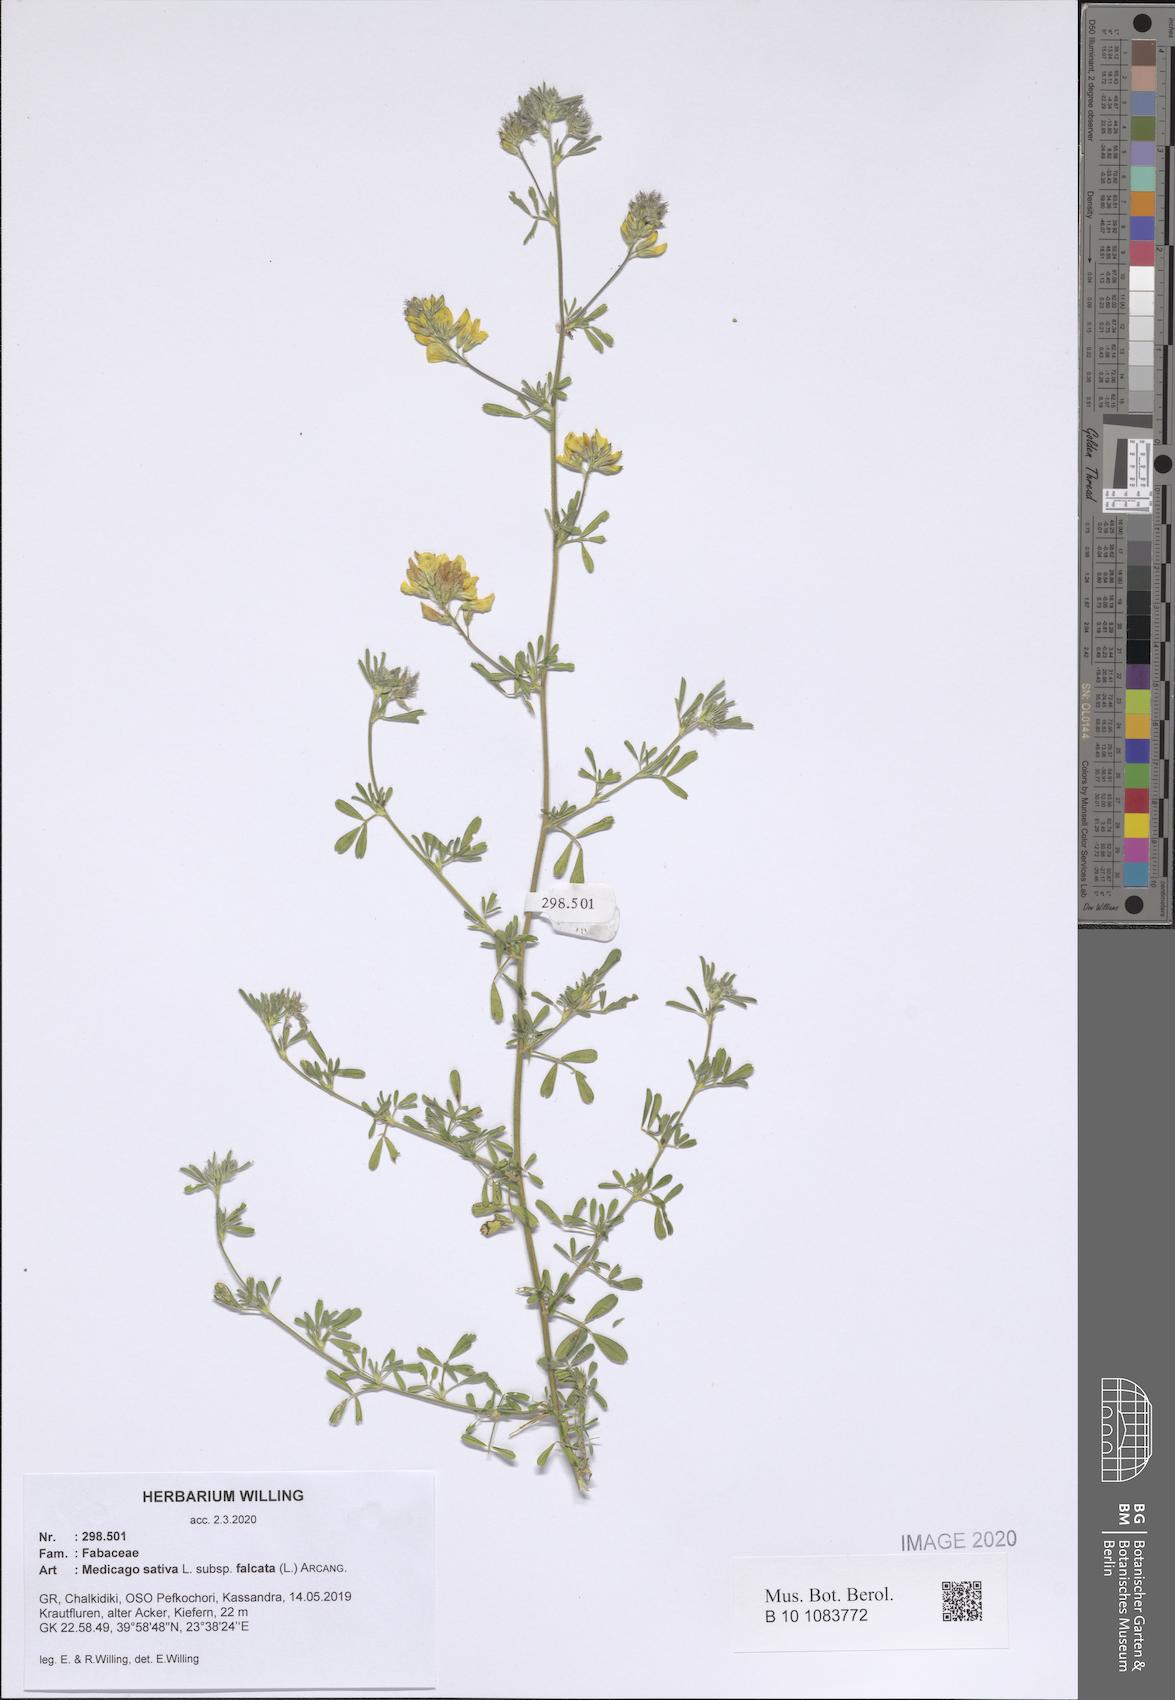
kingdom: Plantae
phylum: Tracheophyta
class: Magnoliopsida
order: Fabales
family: Fabaceae
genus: Medicago
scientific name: Medicago falcata
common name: Sickle medick
